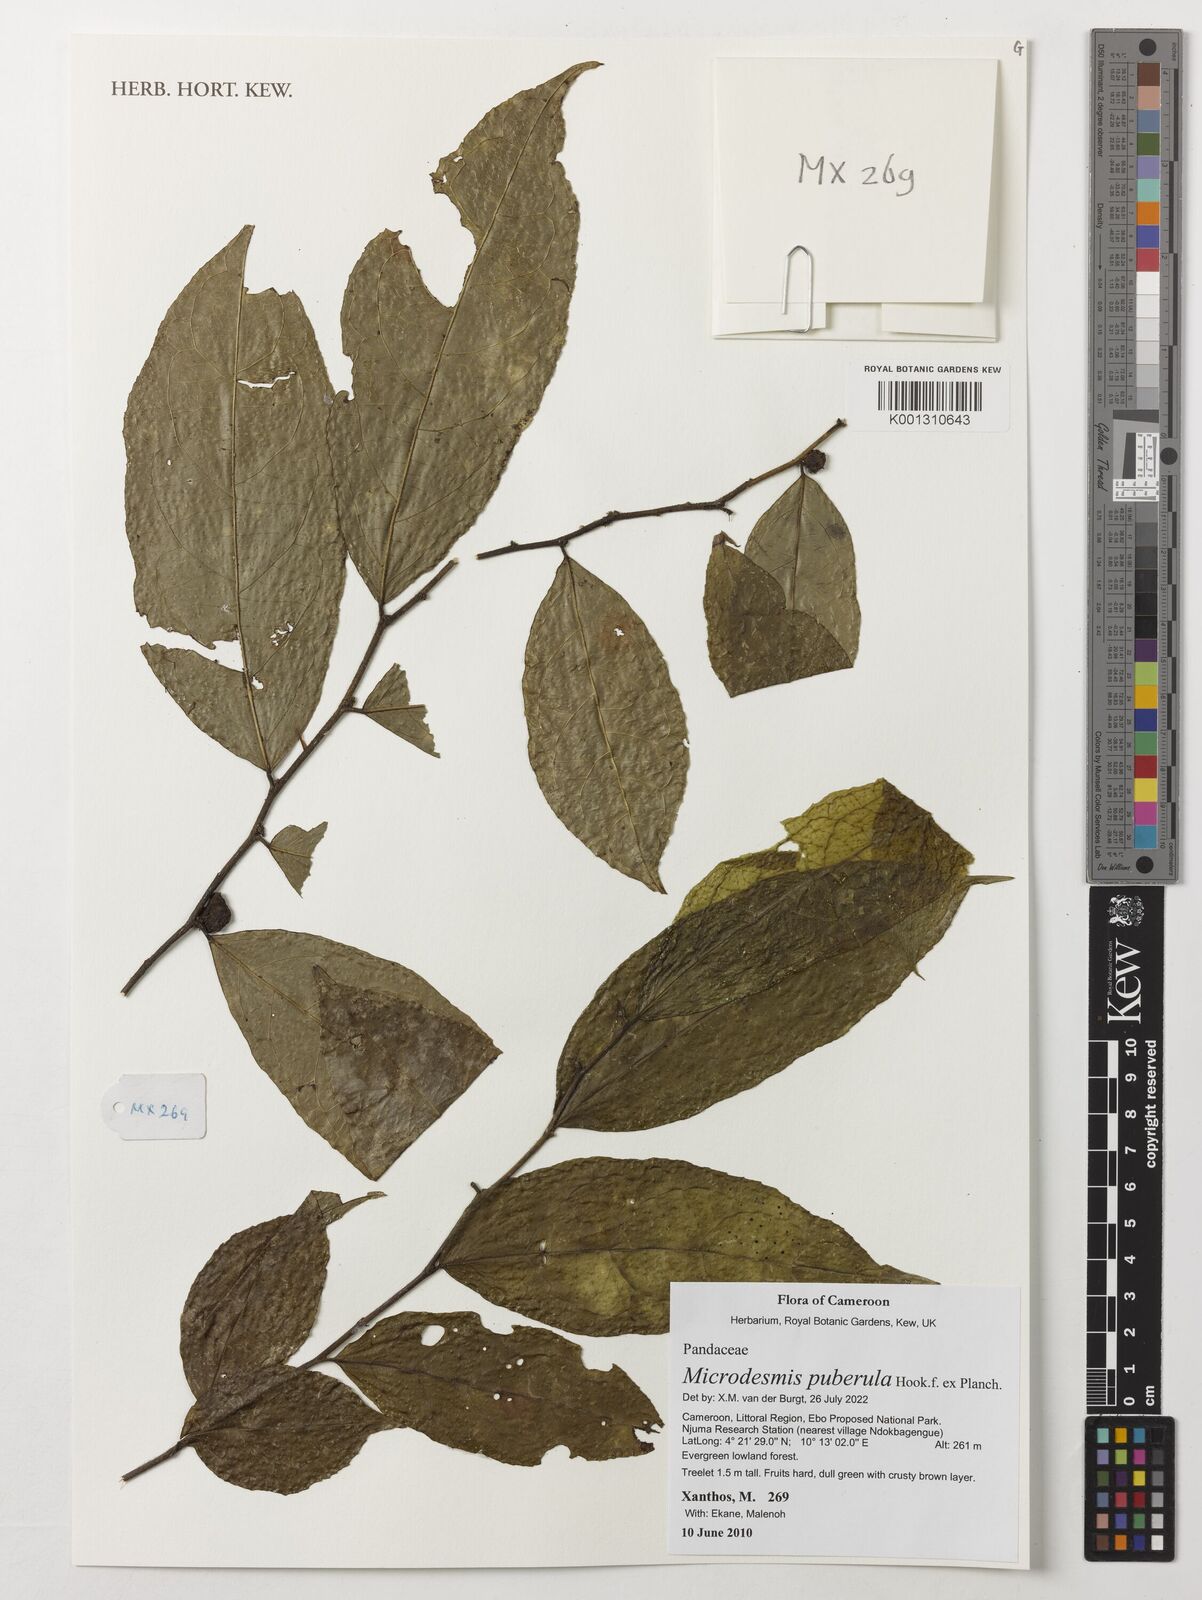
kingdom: Plantae
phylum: Tracheophyta
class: Magnoliopsida
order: Malpighiales
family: Pandaceae
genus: Microdesmis
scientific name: Microdesmis puberula
